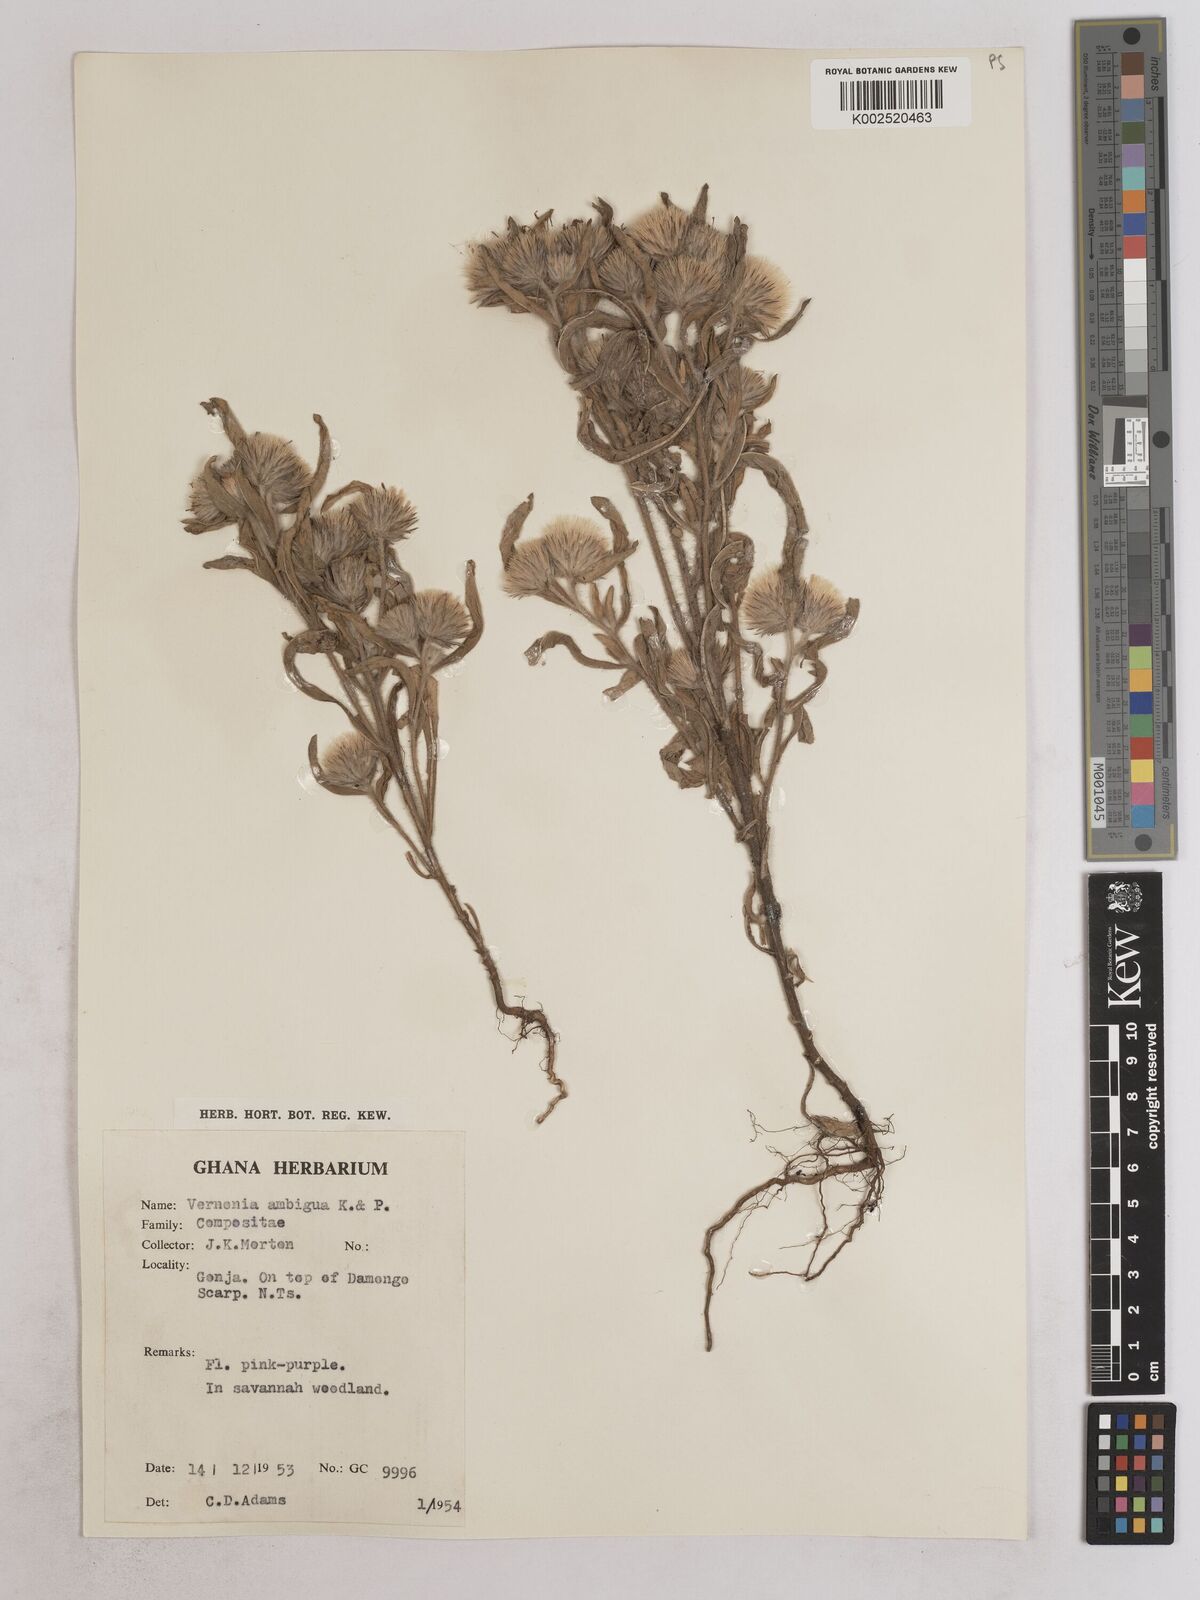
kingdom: Plantae
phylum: Tracheophyta
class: Magnoliopsida
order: Asterales
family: Asteraceae
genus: Vernoniastrum
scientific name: Vernoniastrum ambiguum
